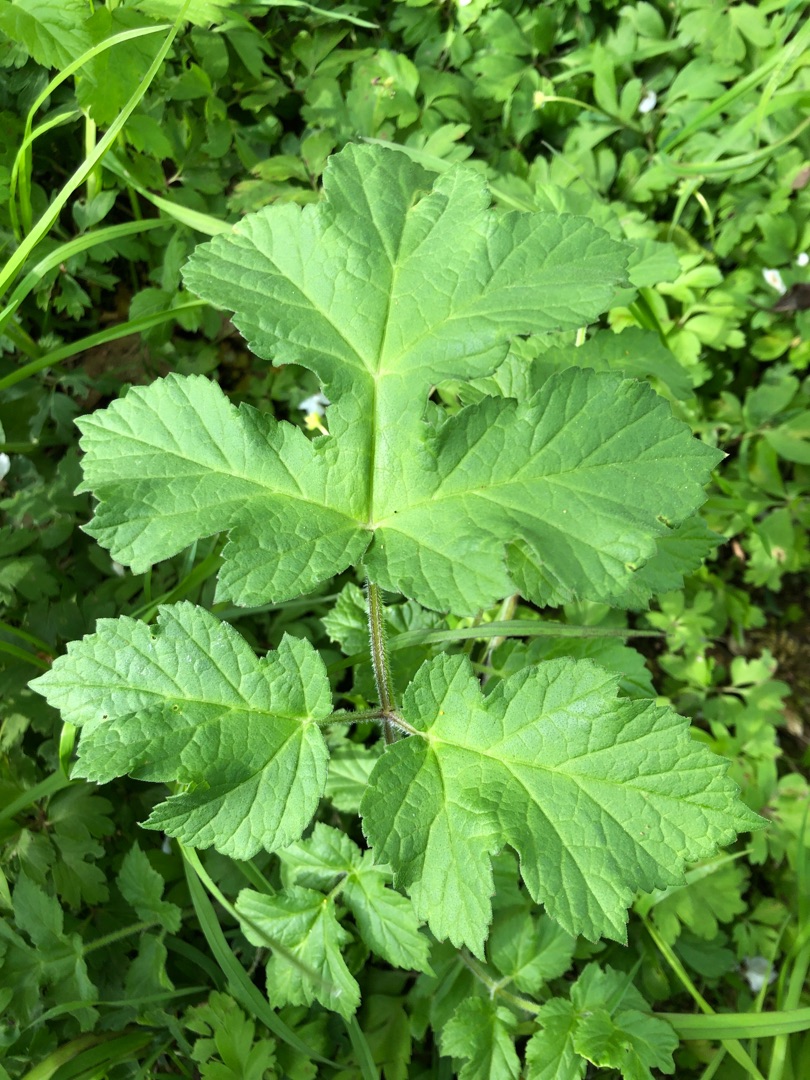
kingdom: Plantae
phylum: Tracheophyta
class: Magnoliopsida
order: Apiales
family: Apiaceae
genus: Heracleum
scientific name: Heracleum sphondylium
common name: Almindelig bjørneklo
